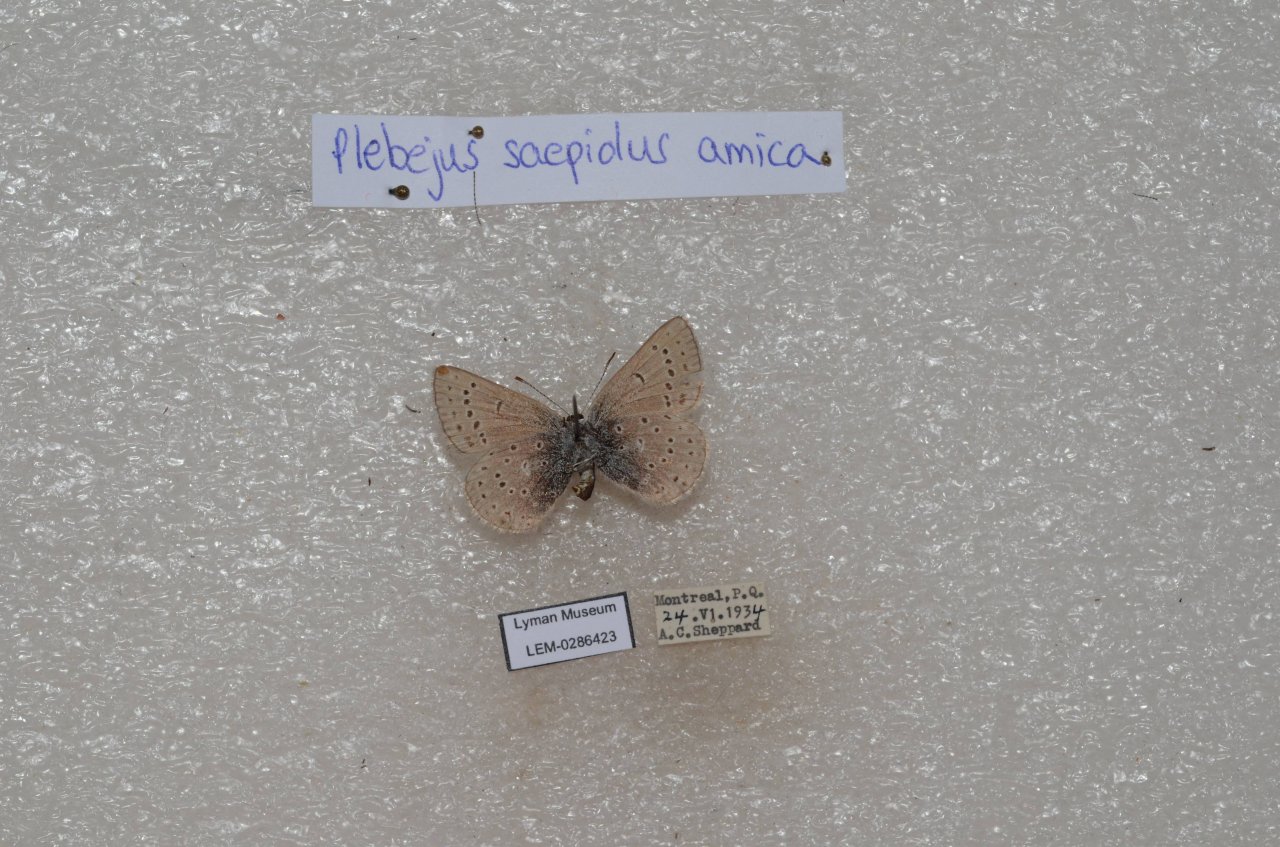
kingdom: Animalia
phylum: Arthropoda
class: Insecta
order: Lepidoptera
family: Lycaenidae
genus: Plebejus
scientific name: Plebejus saepiolus
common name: Greenish Blue
